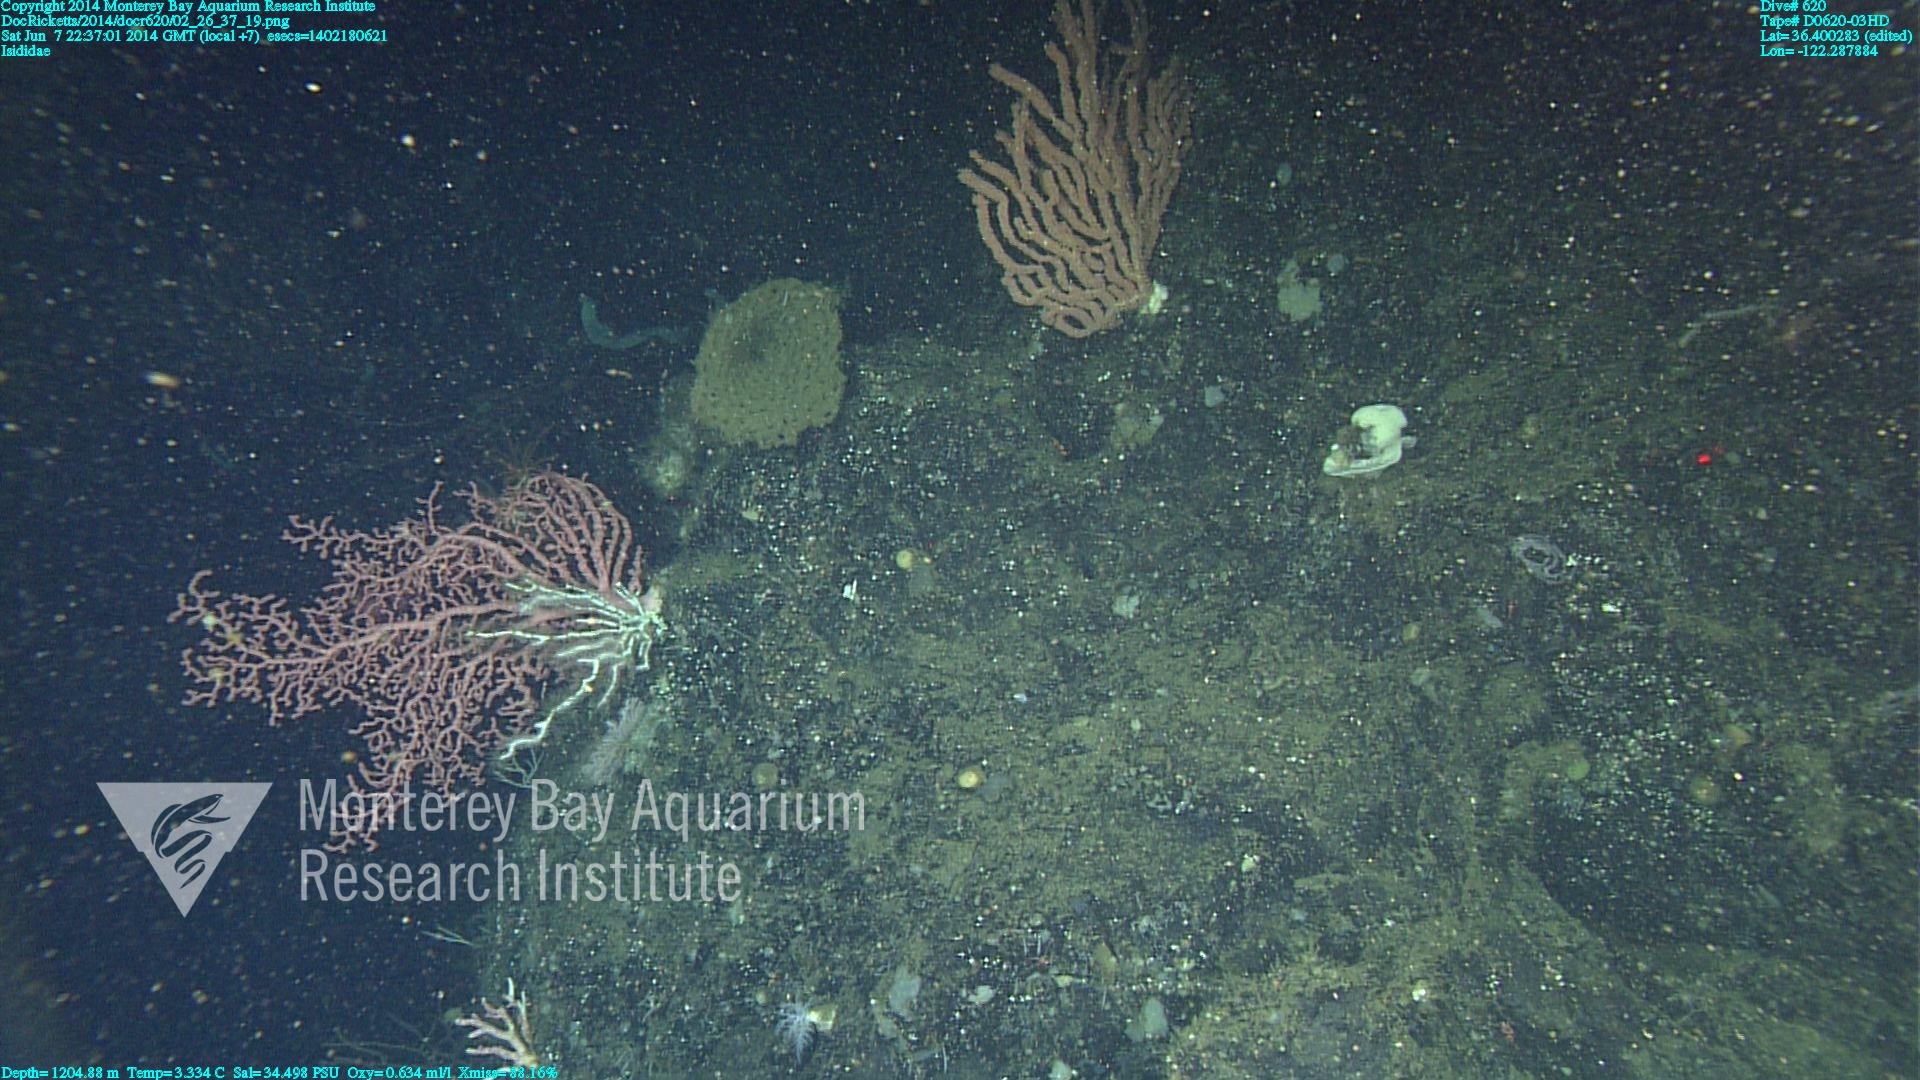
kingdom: Animalia
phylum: Cnidaria
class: Anthozoa
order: Scleralcyonacea
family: Keratoisididae
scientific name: Keratoisididae
